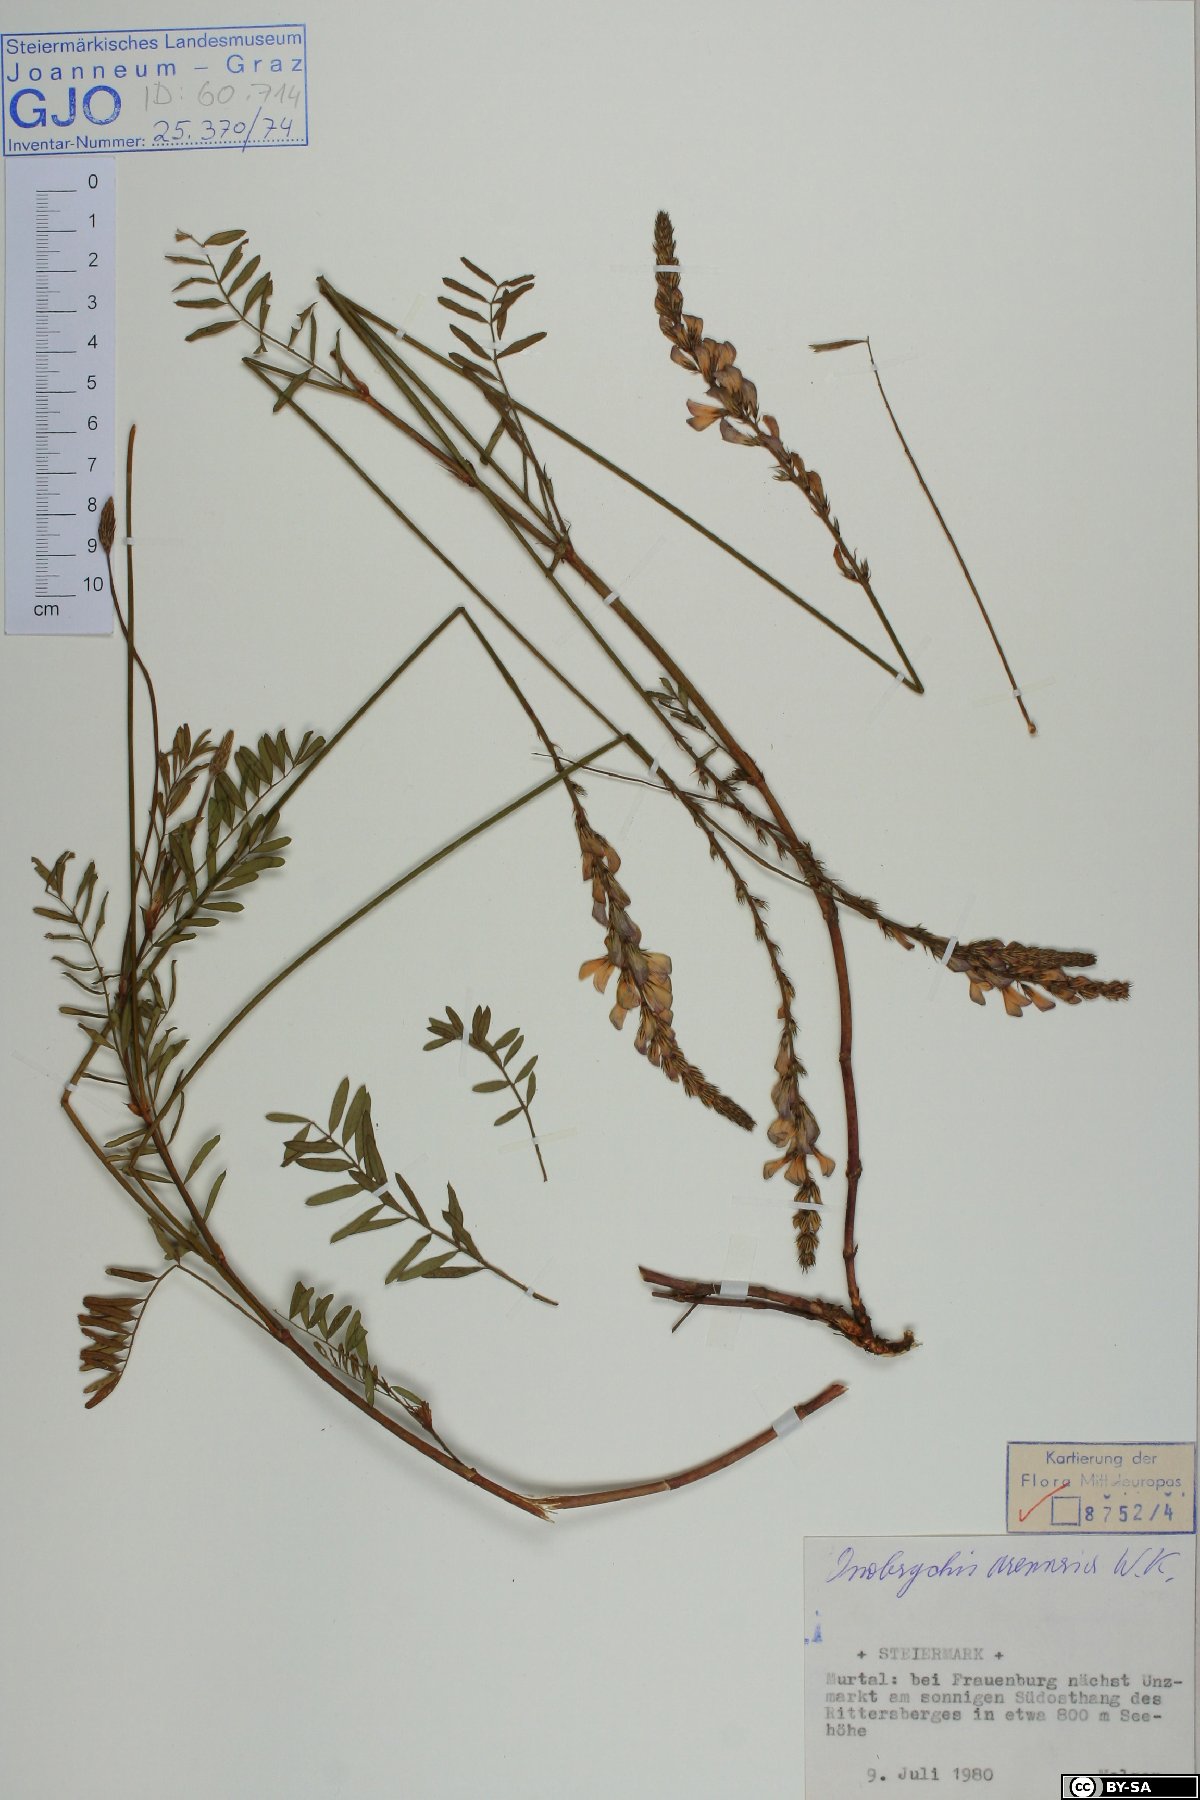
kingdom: Plantae
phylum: Tracheophyta
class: Magnoliopsida
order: Fabales
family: Fabaceae
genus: Onobrychis
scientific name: Onobrychis arenaria
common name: Sand esparcet
